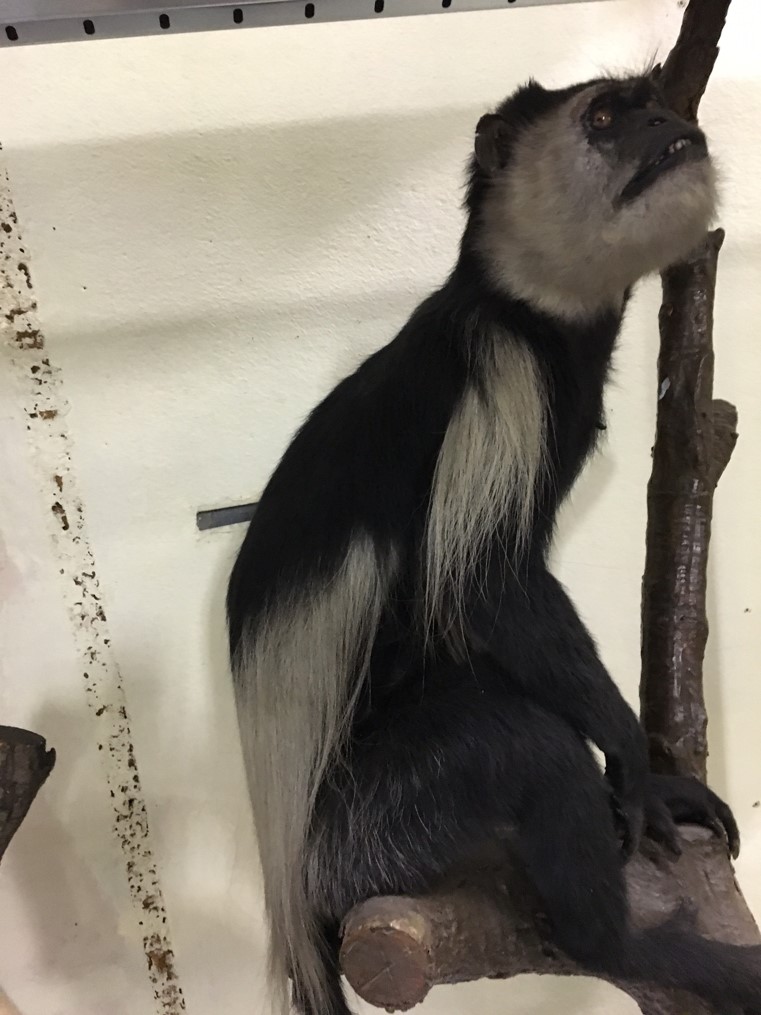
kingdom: Animalia
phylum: Chordata
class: Mammalia
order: Primates
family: Cercopithecidae
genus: Colobus
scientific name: Colobus angolensis
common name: Angola colobus
